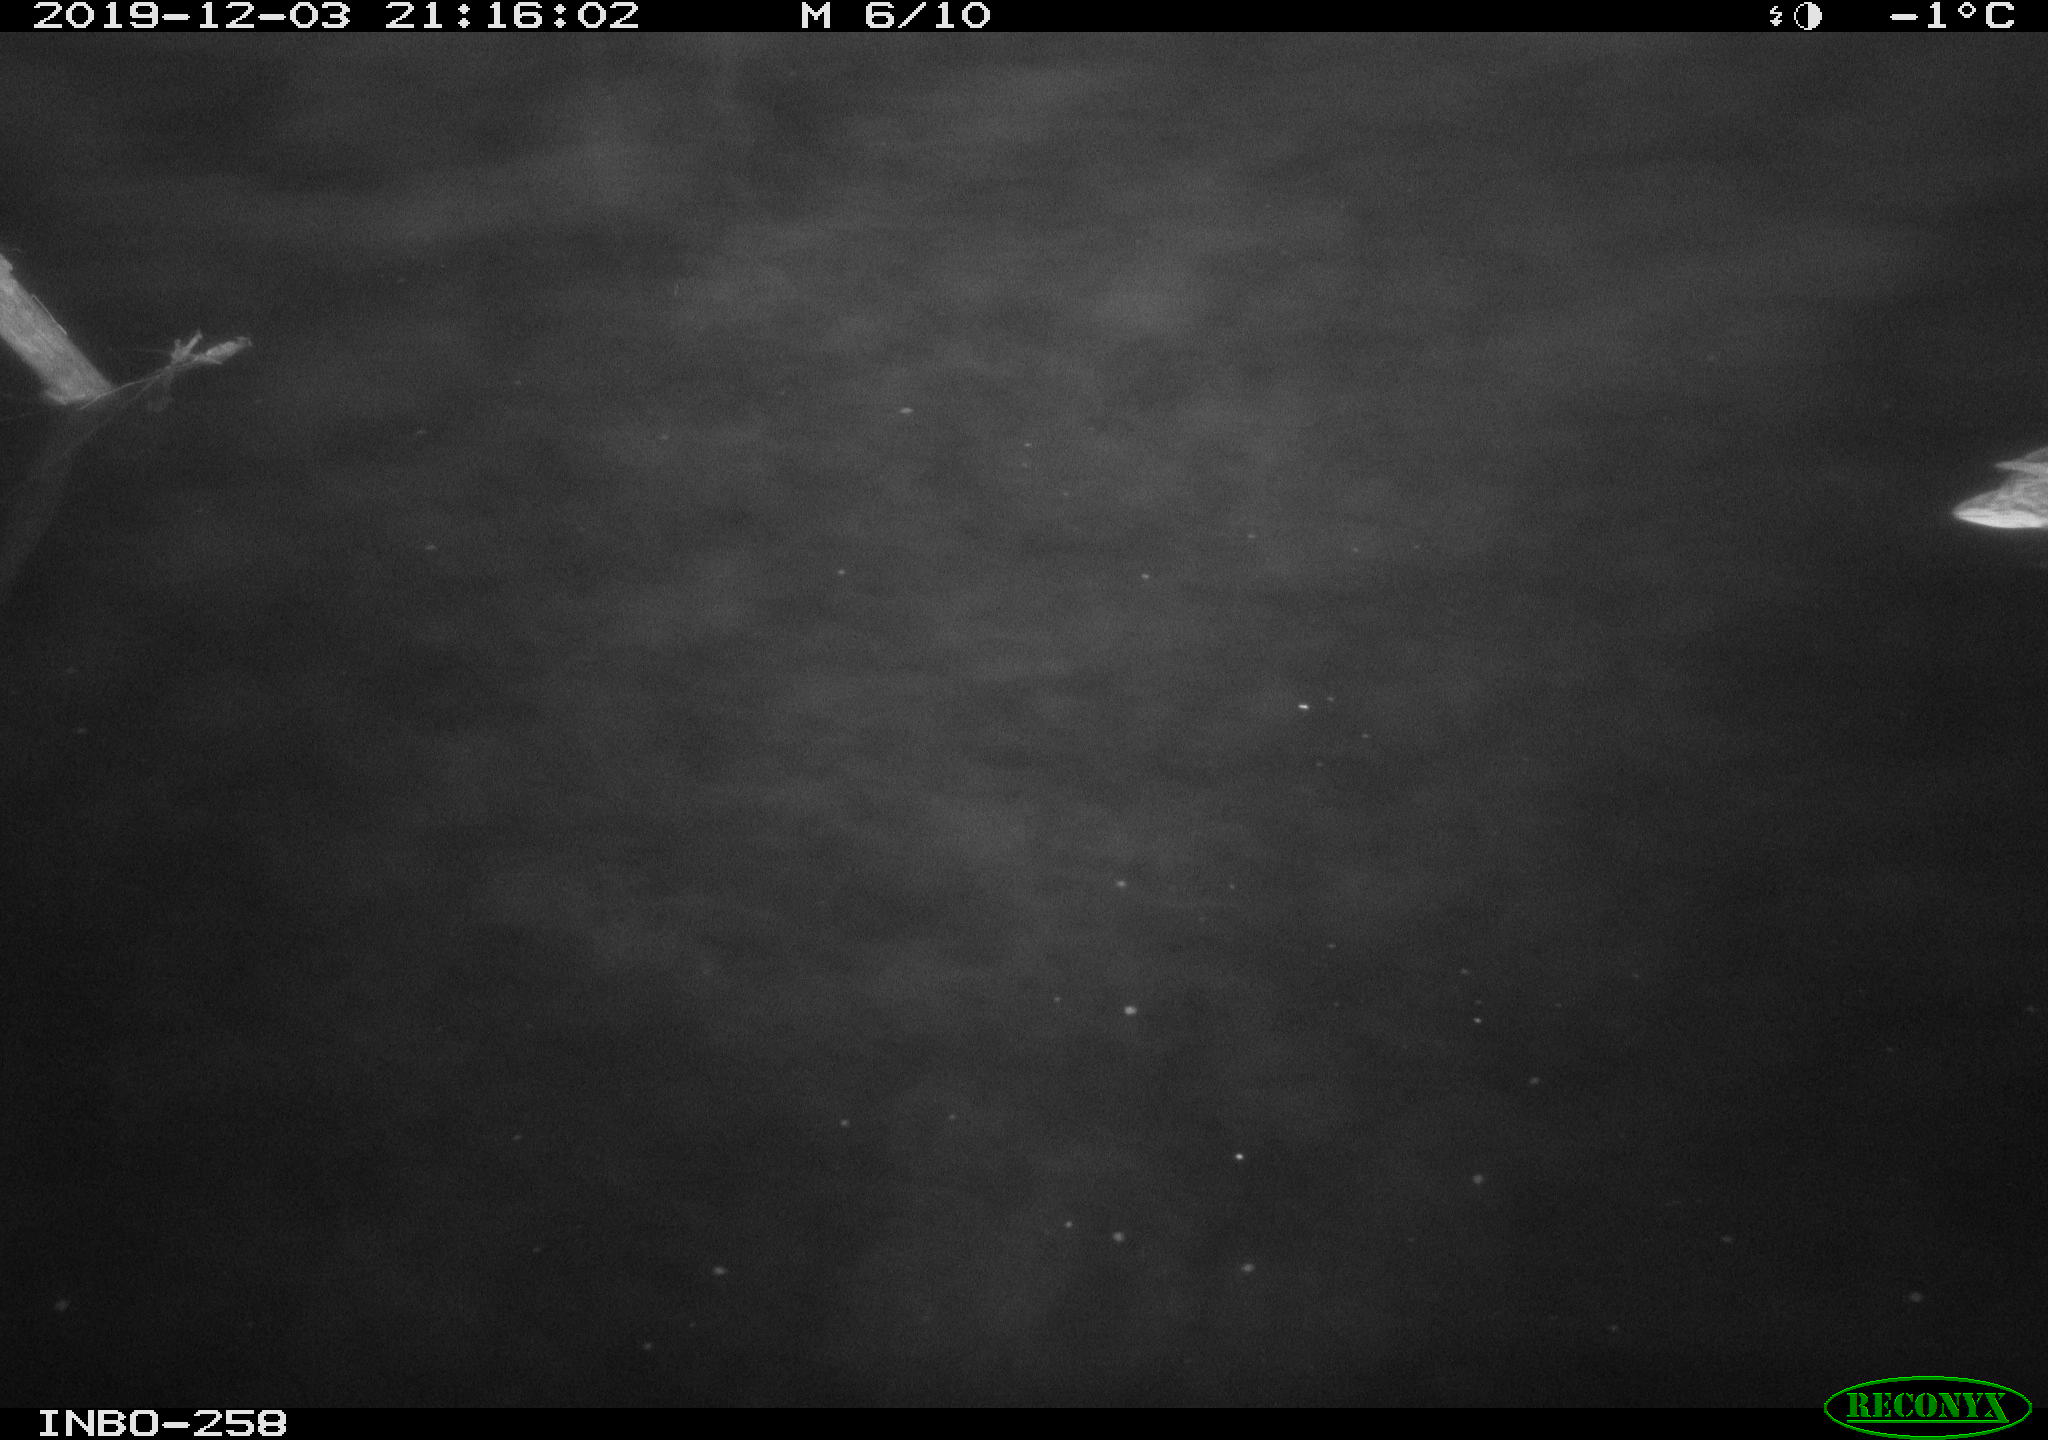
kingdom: Animalia
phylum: Chordata
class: Aves
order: Anseriformes
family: Anatidae
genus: Anas
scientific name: Anas platyrhynchos
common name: Mallard
